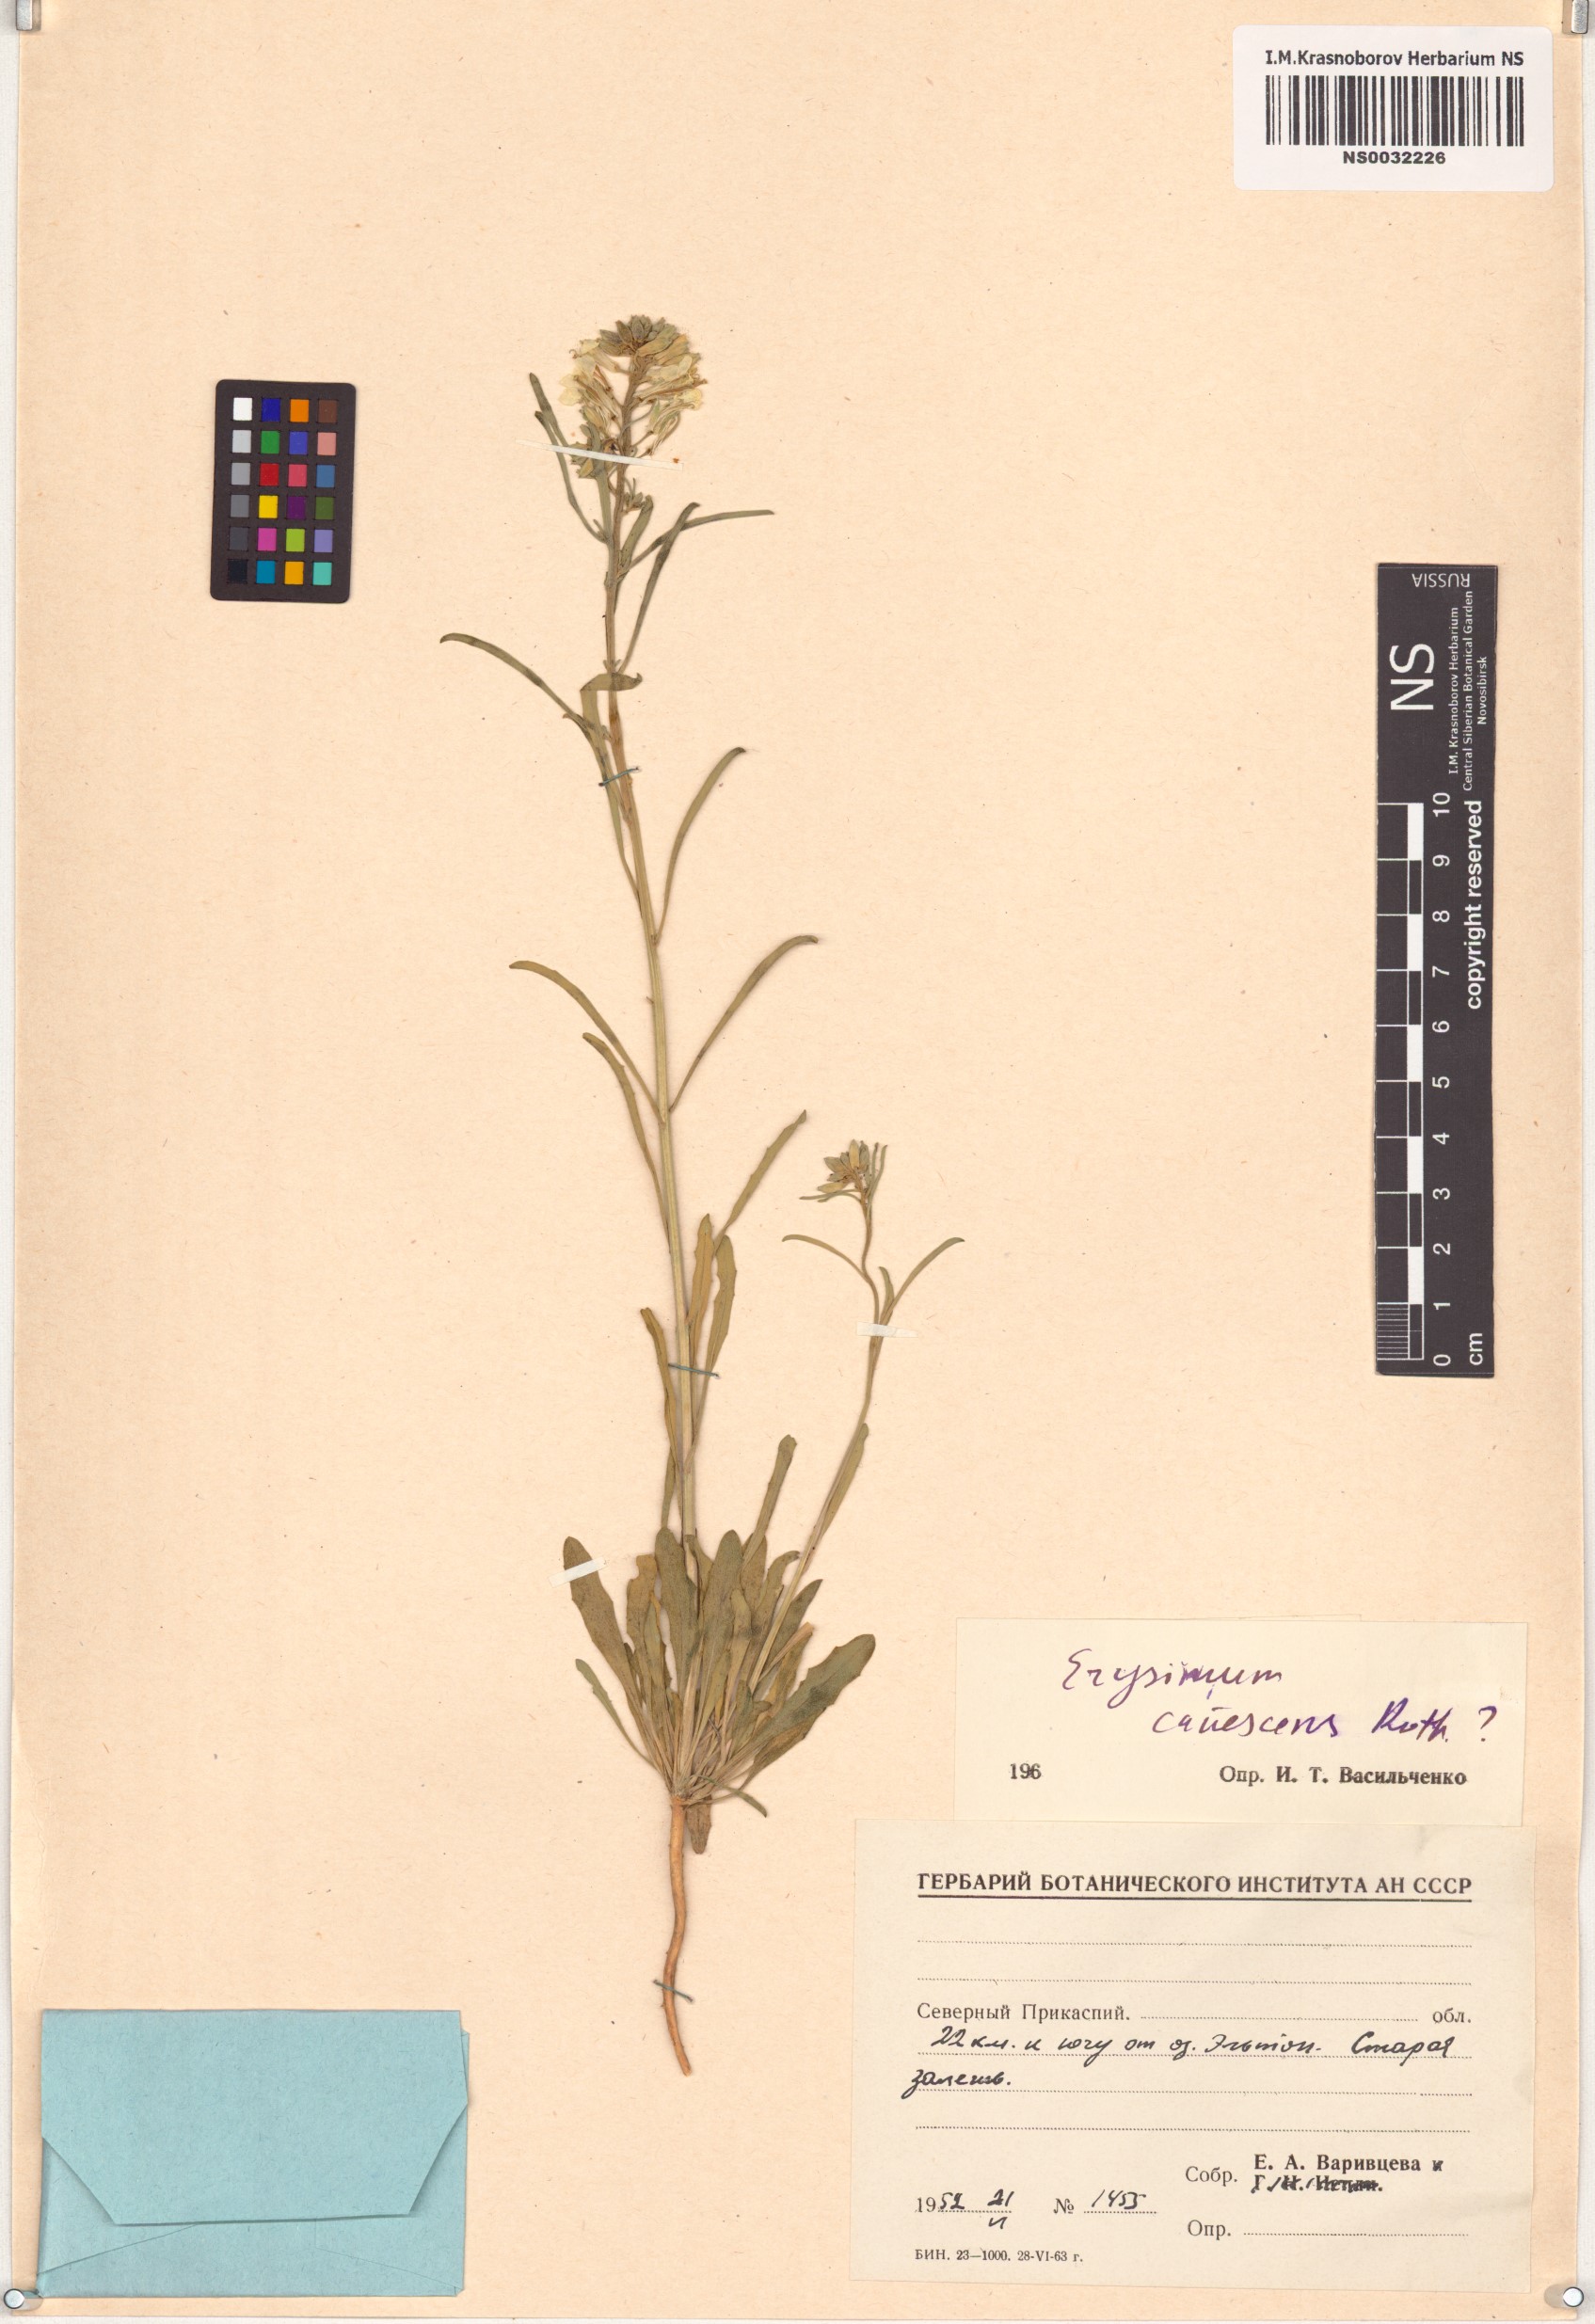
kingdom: Plantae
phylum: Tracheophyta
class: Magnoliopsida
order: Brassicales
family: Brassicaceae
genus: Erysimum
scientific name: Erysimum canescens
